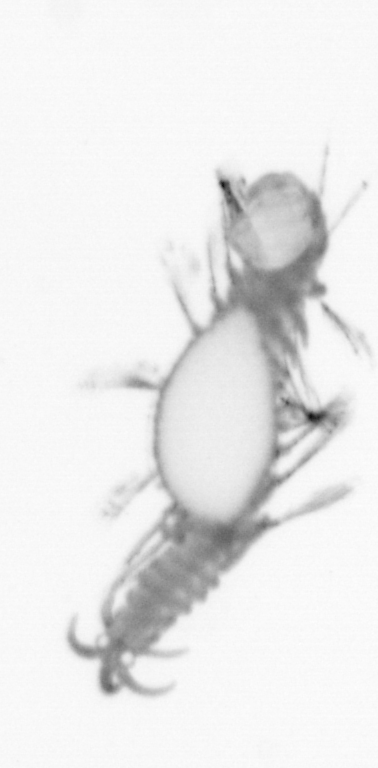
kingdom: Animalia
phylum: Annelida
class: Polychaeta
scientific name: Polychaeta
